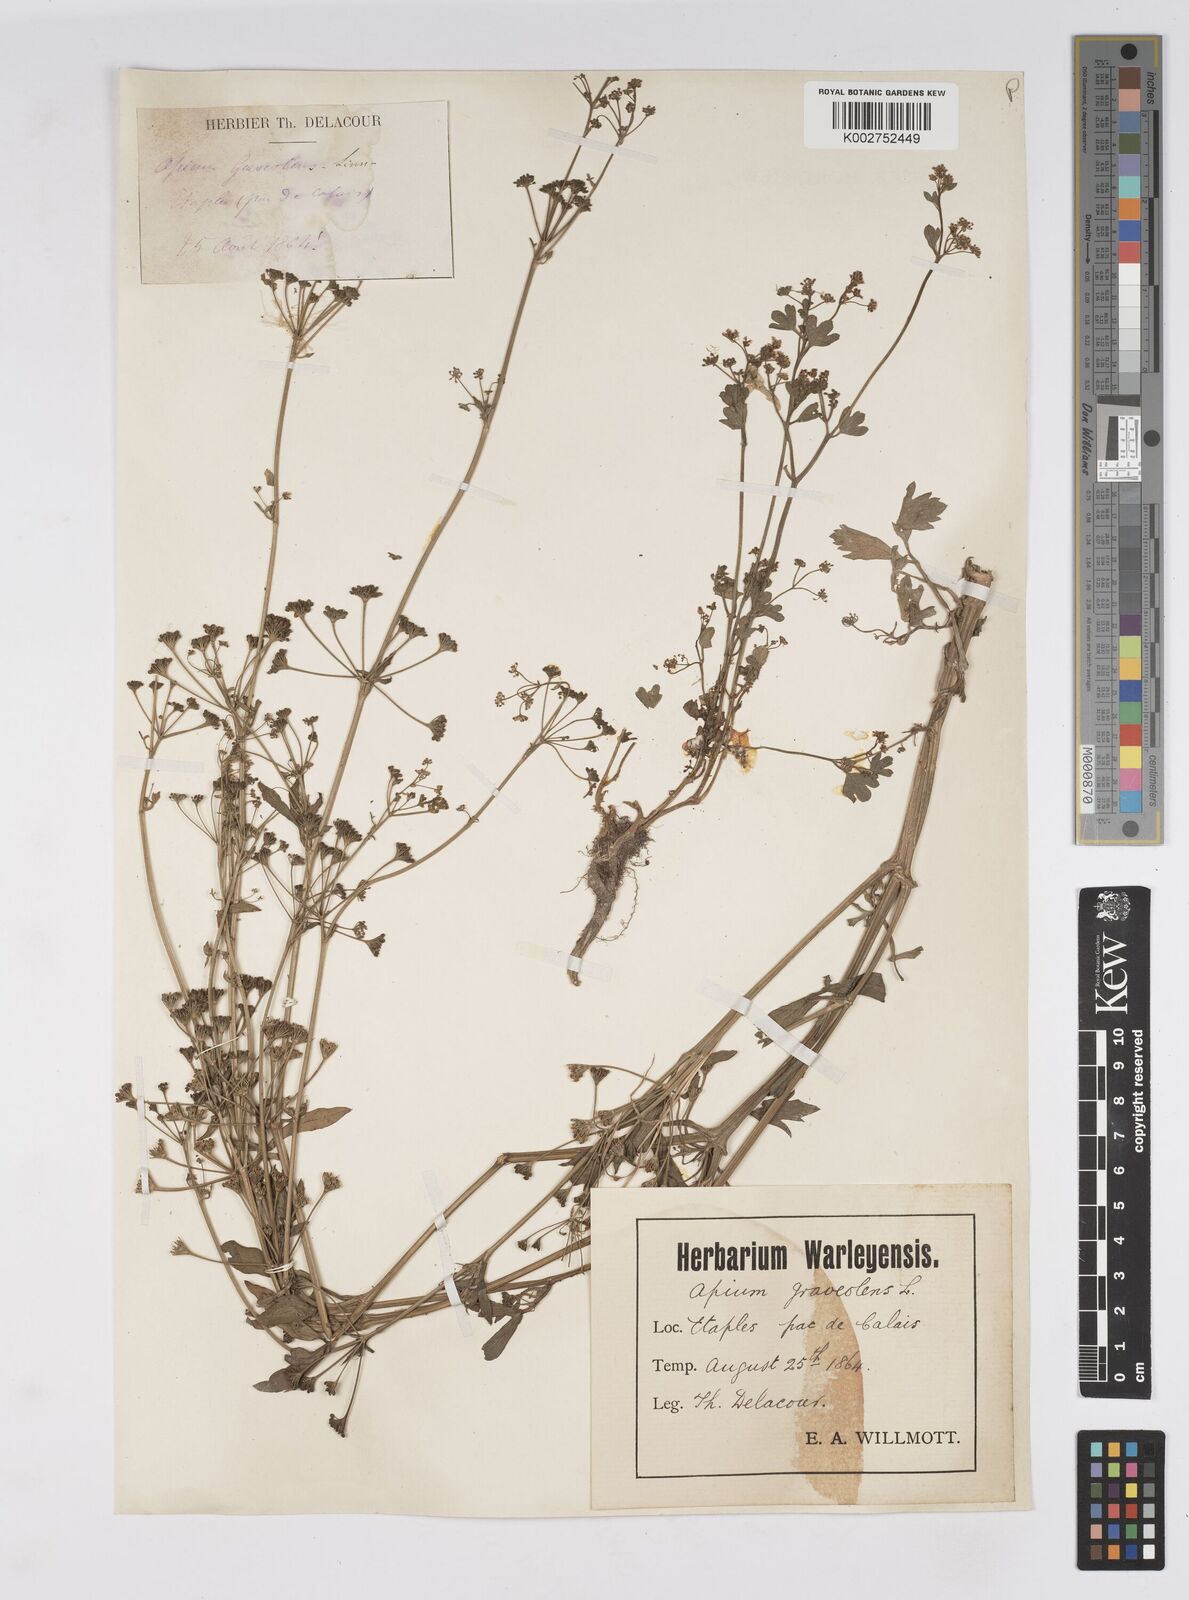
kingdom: Plantae
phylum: Tracheophyta
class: Magnoliopsida
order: Apiales
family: Apiaceae
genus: Apium
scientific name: Apium graveolens
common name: Wild celery
